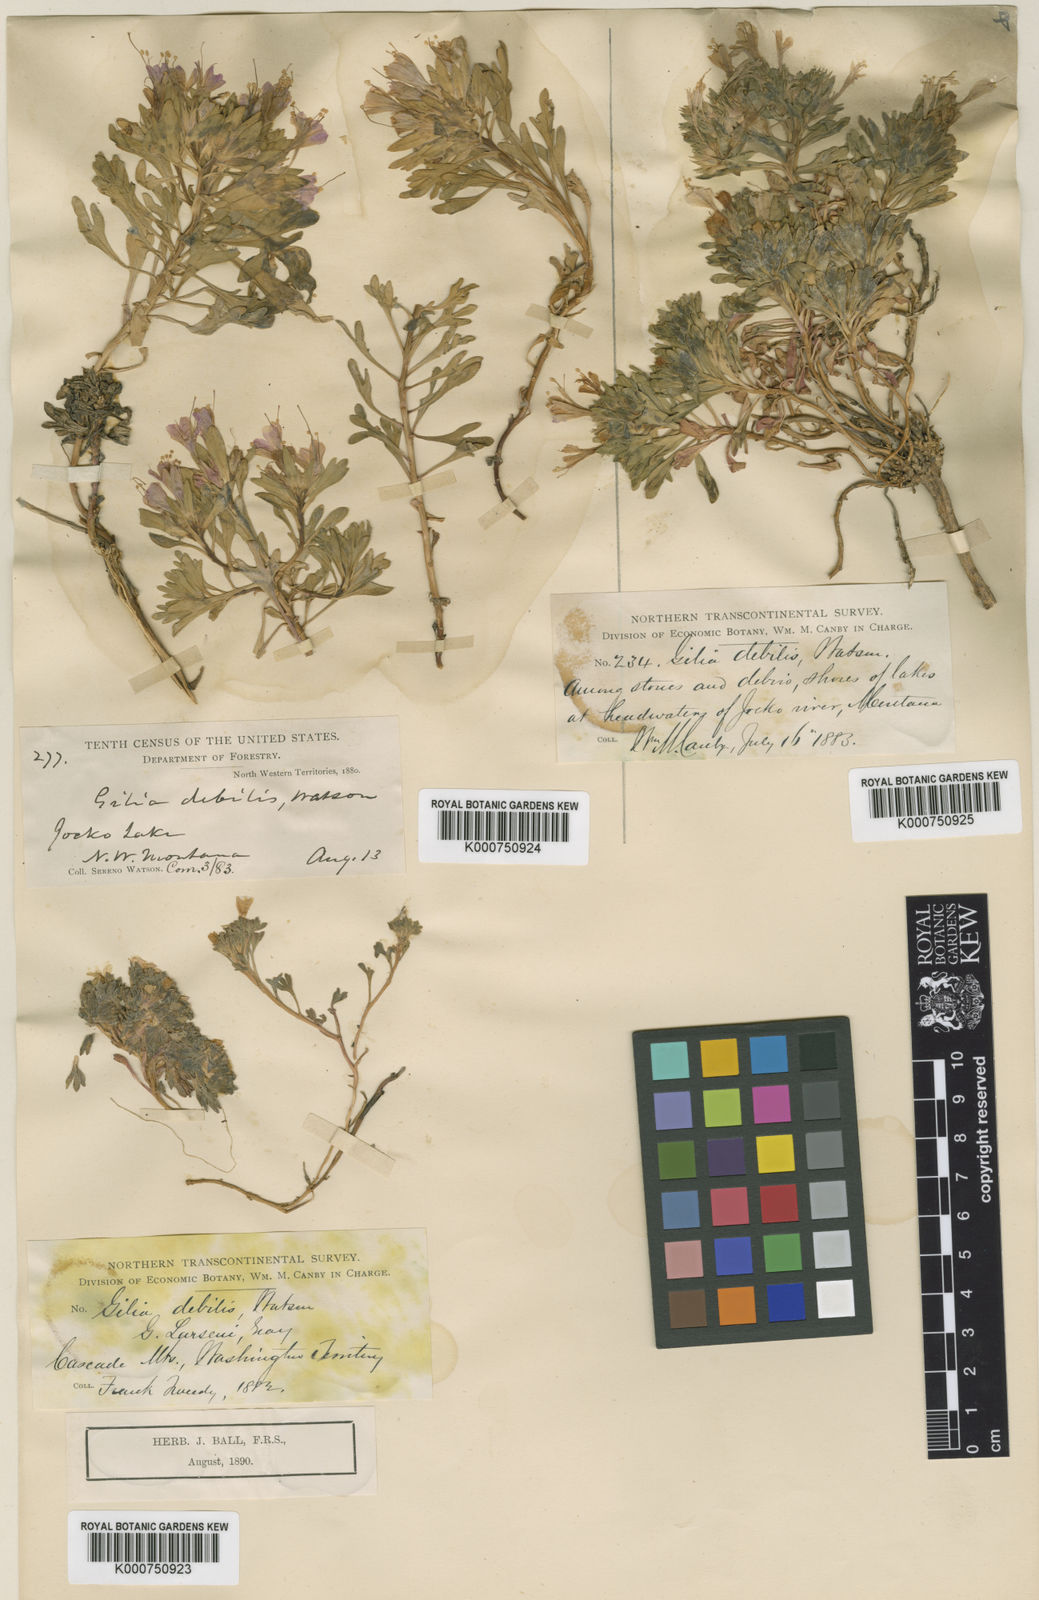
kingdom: Plantae
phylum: Tracheophyta
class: Magnoliopsida
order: Ericales
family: Polemoniaceae
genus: Collomia
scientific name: Collomia debilis
